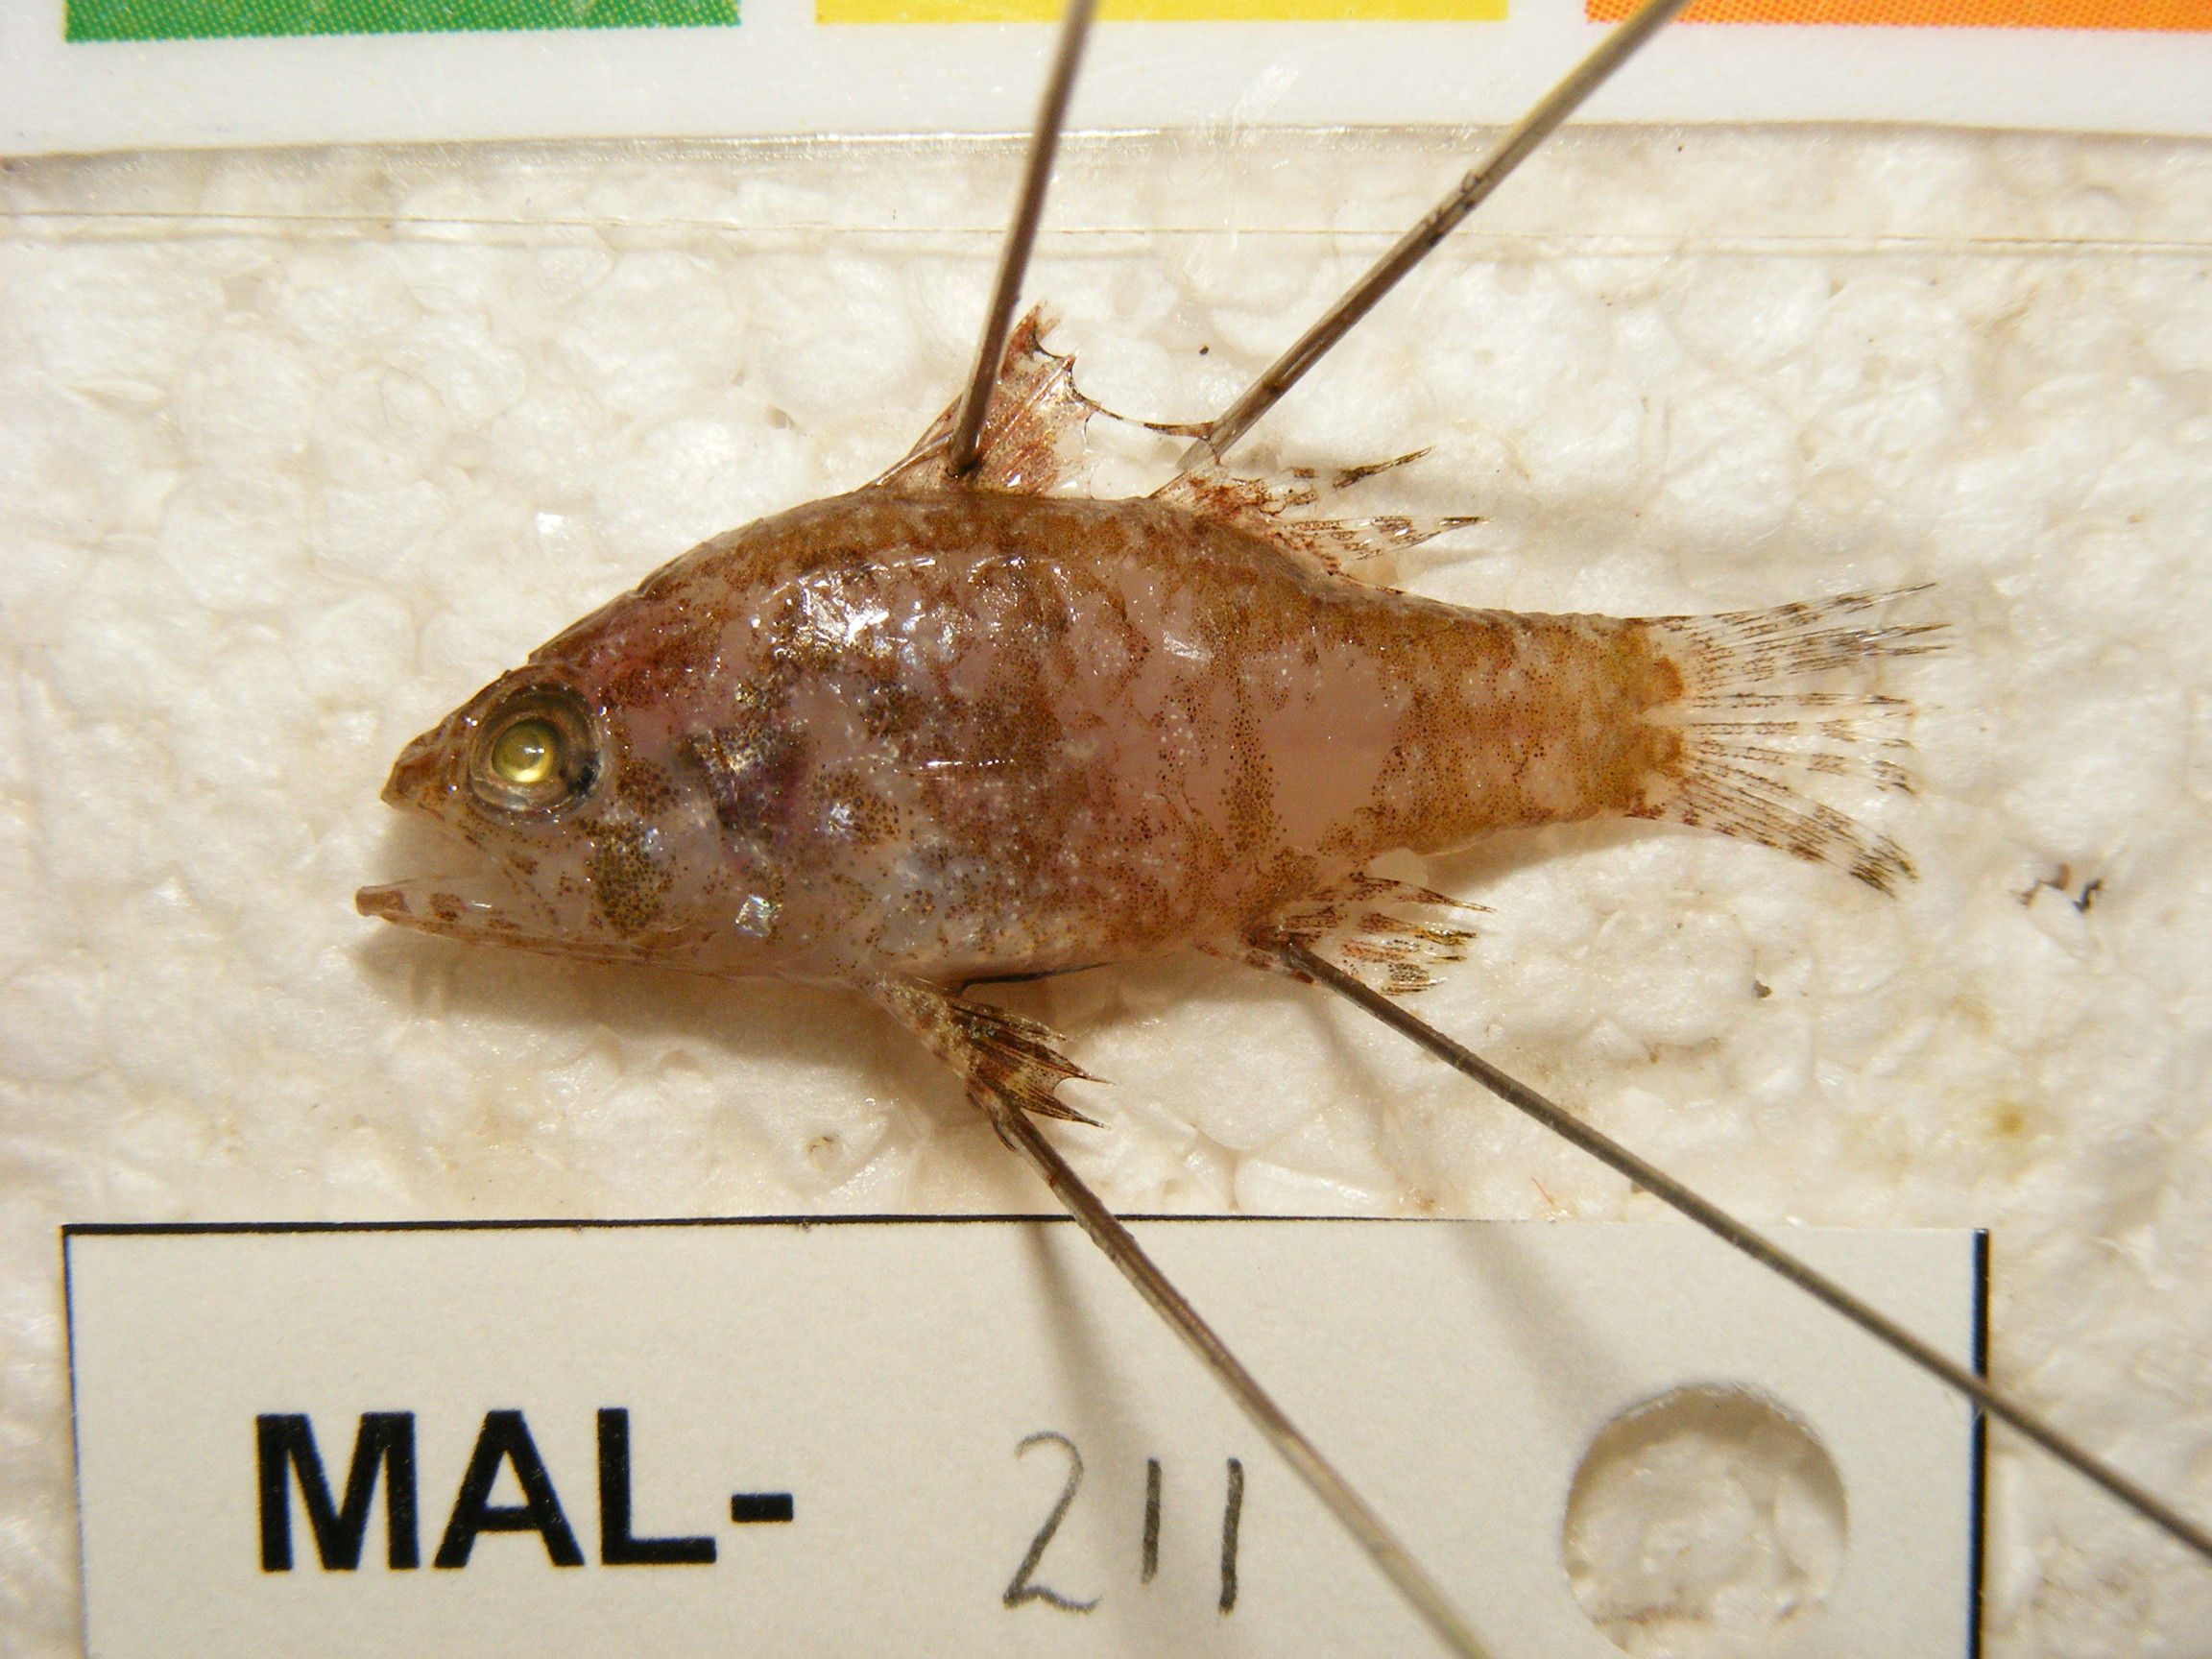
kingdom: Animalia
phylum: Chordata
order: Perciformes
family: Apogonidae
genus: Apogonichthys
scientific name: Apogonichthys perdix
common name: Perdix cardinalfish
